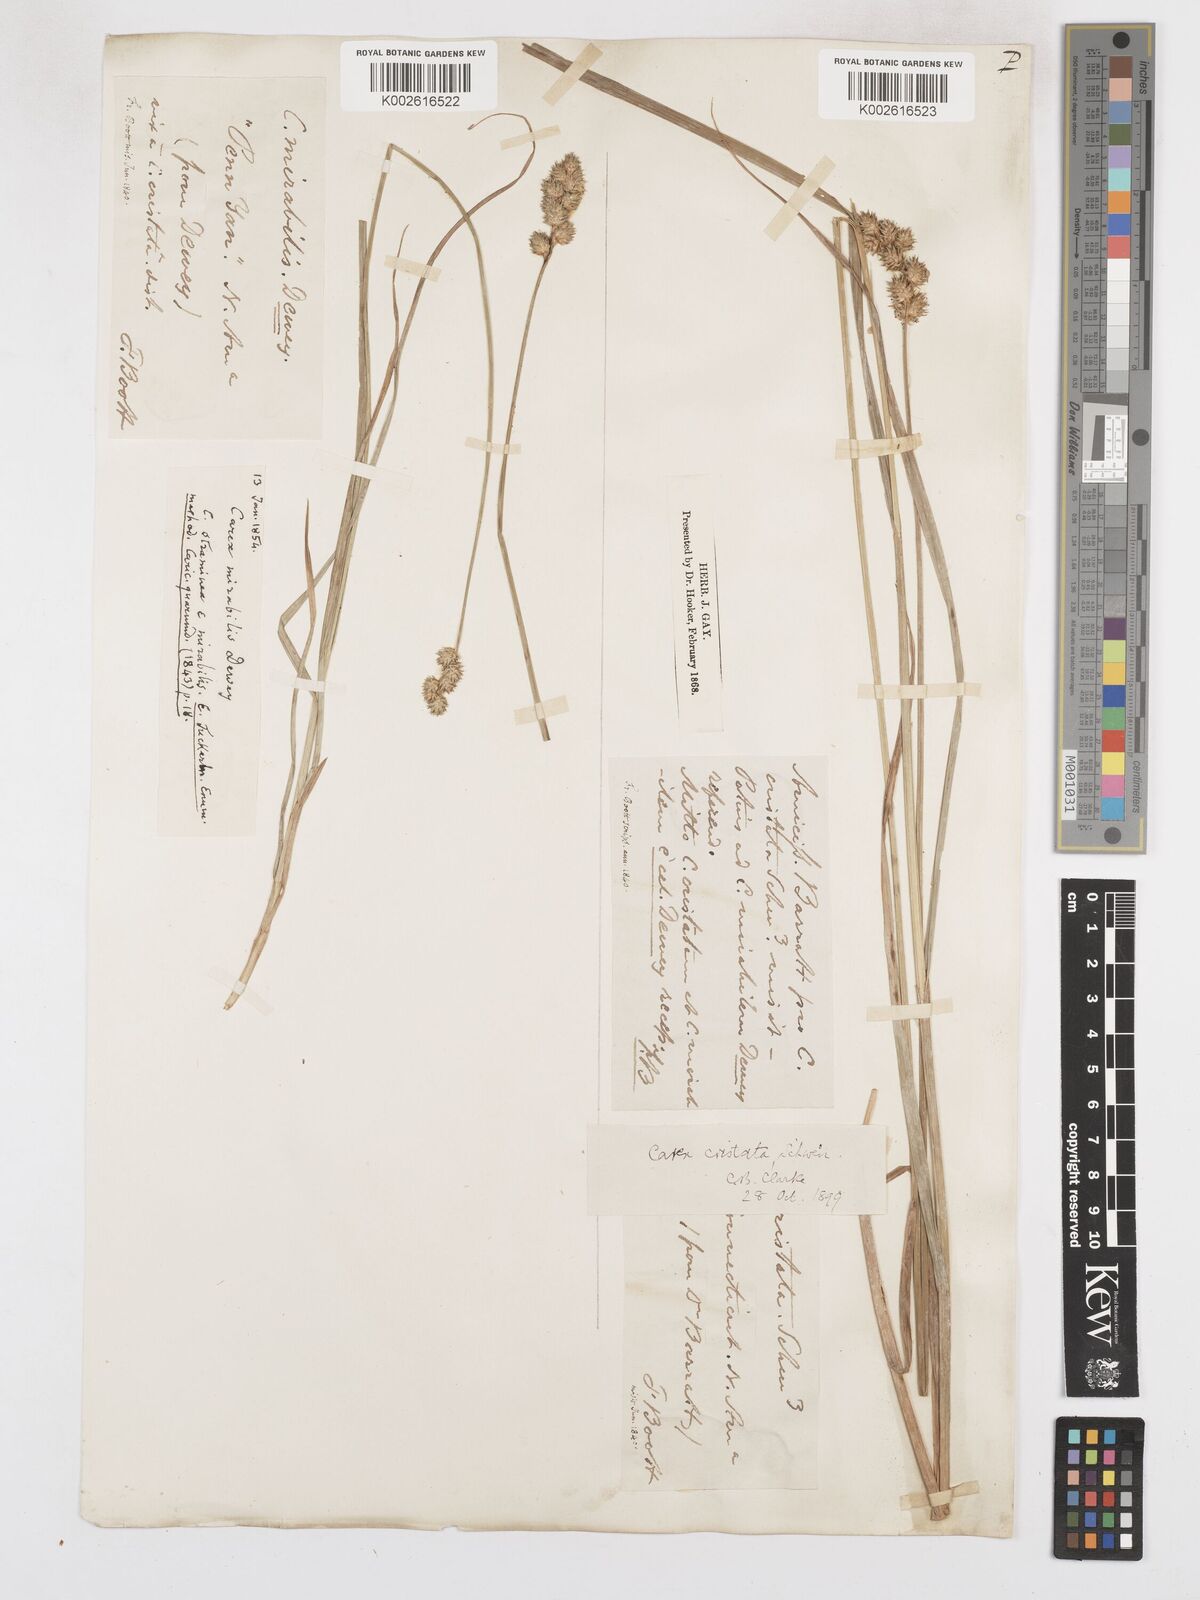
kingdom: Plantae
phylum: Tracheophyta
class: Liliopsida
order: Poales
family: Cyperaceae
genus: Carex
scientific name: Carex cristatella
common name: Crested oval sedge
